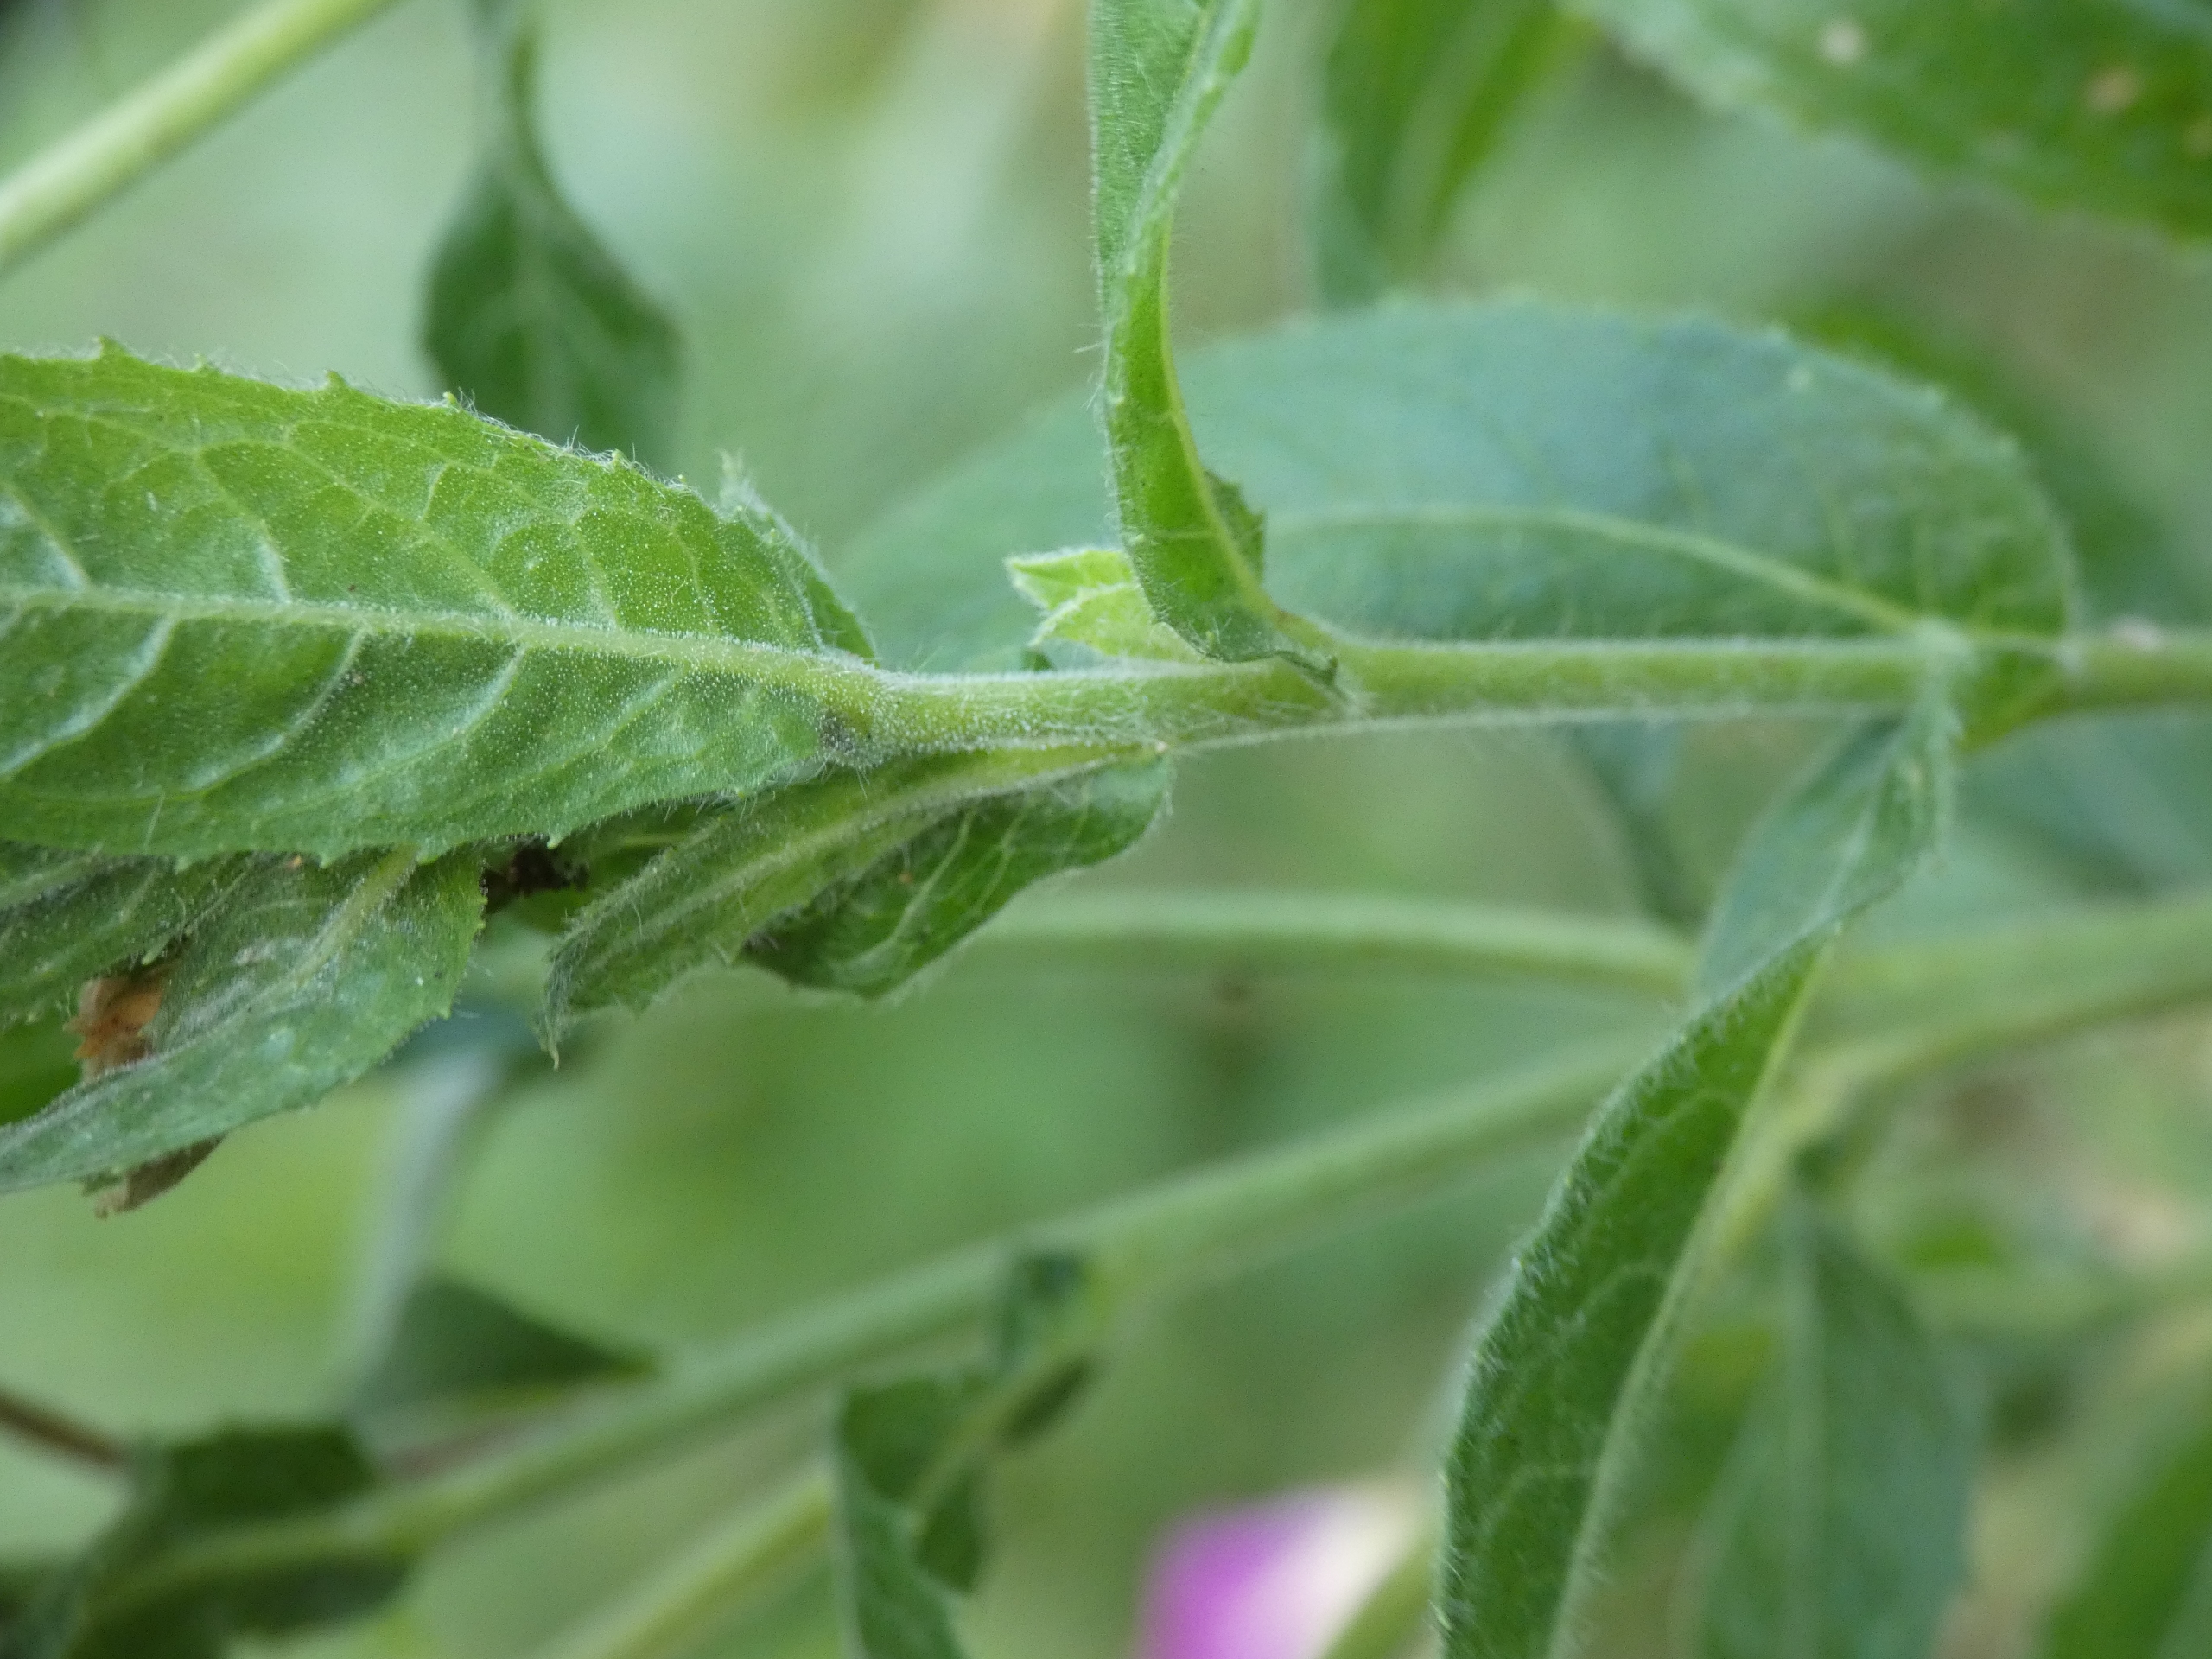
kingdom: Plantae
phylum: Tracheophyta
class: Magnoliopsida
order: Myrtales
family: Onagraceae
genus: Epilobium
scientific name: Epilobium hirsutum
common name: Lådden dueurt
